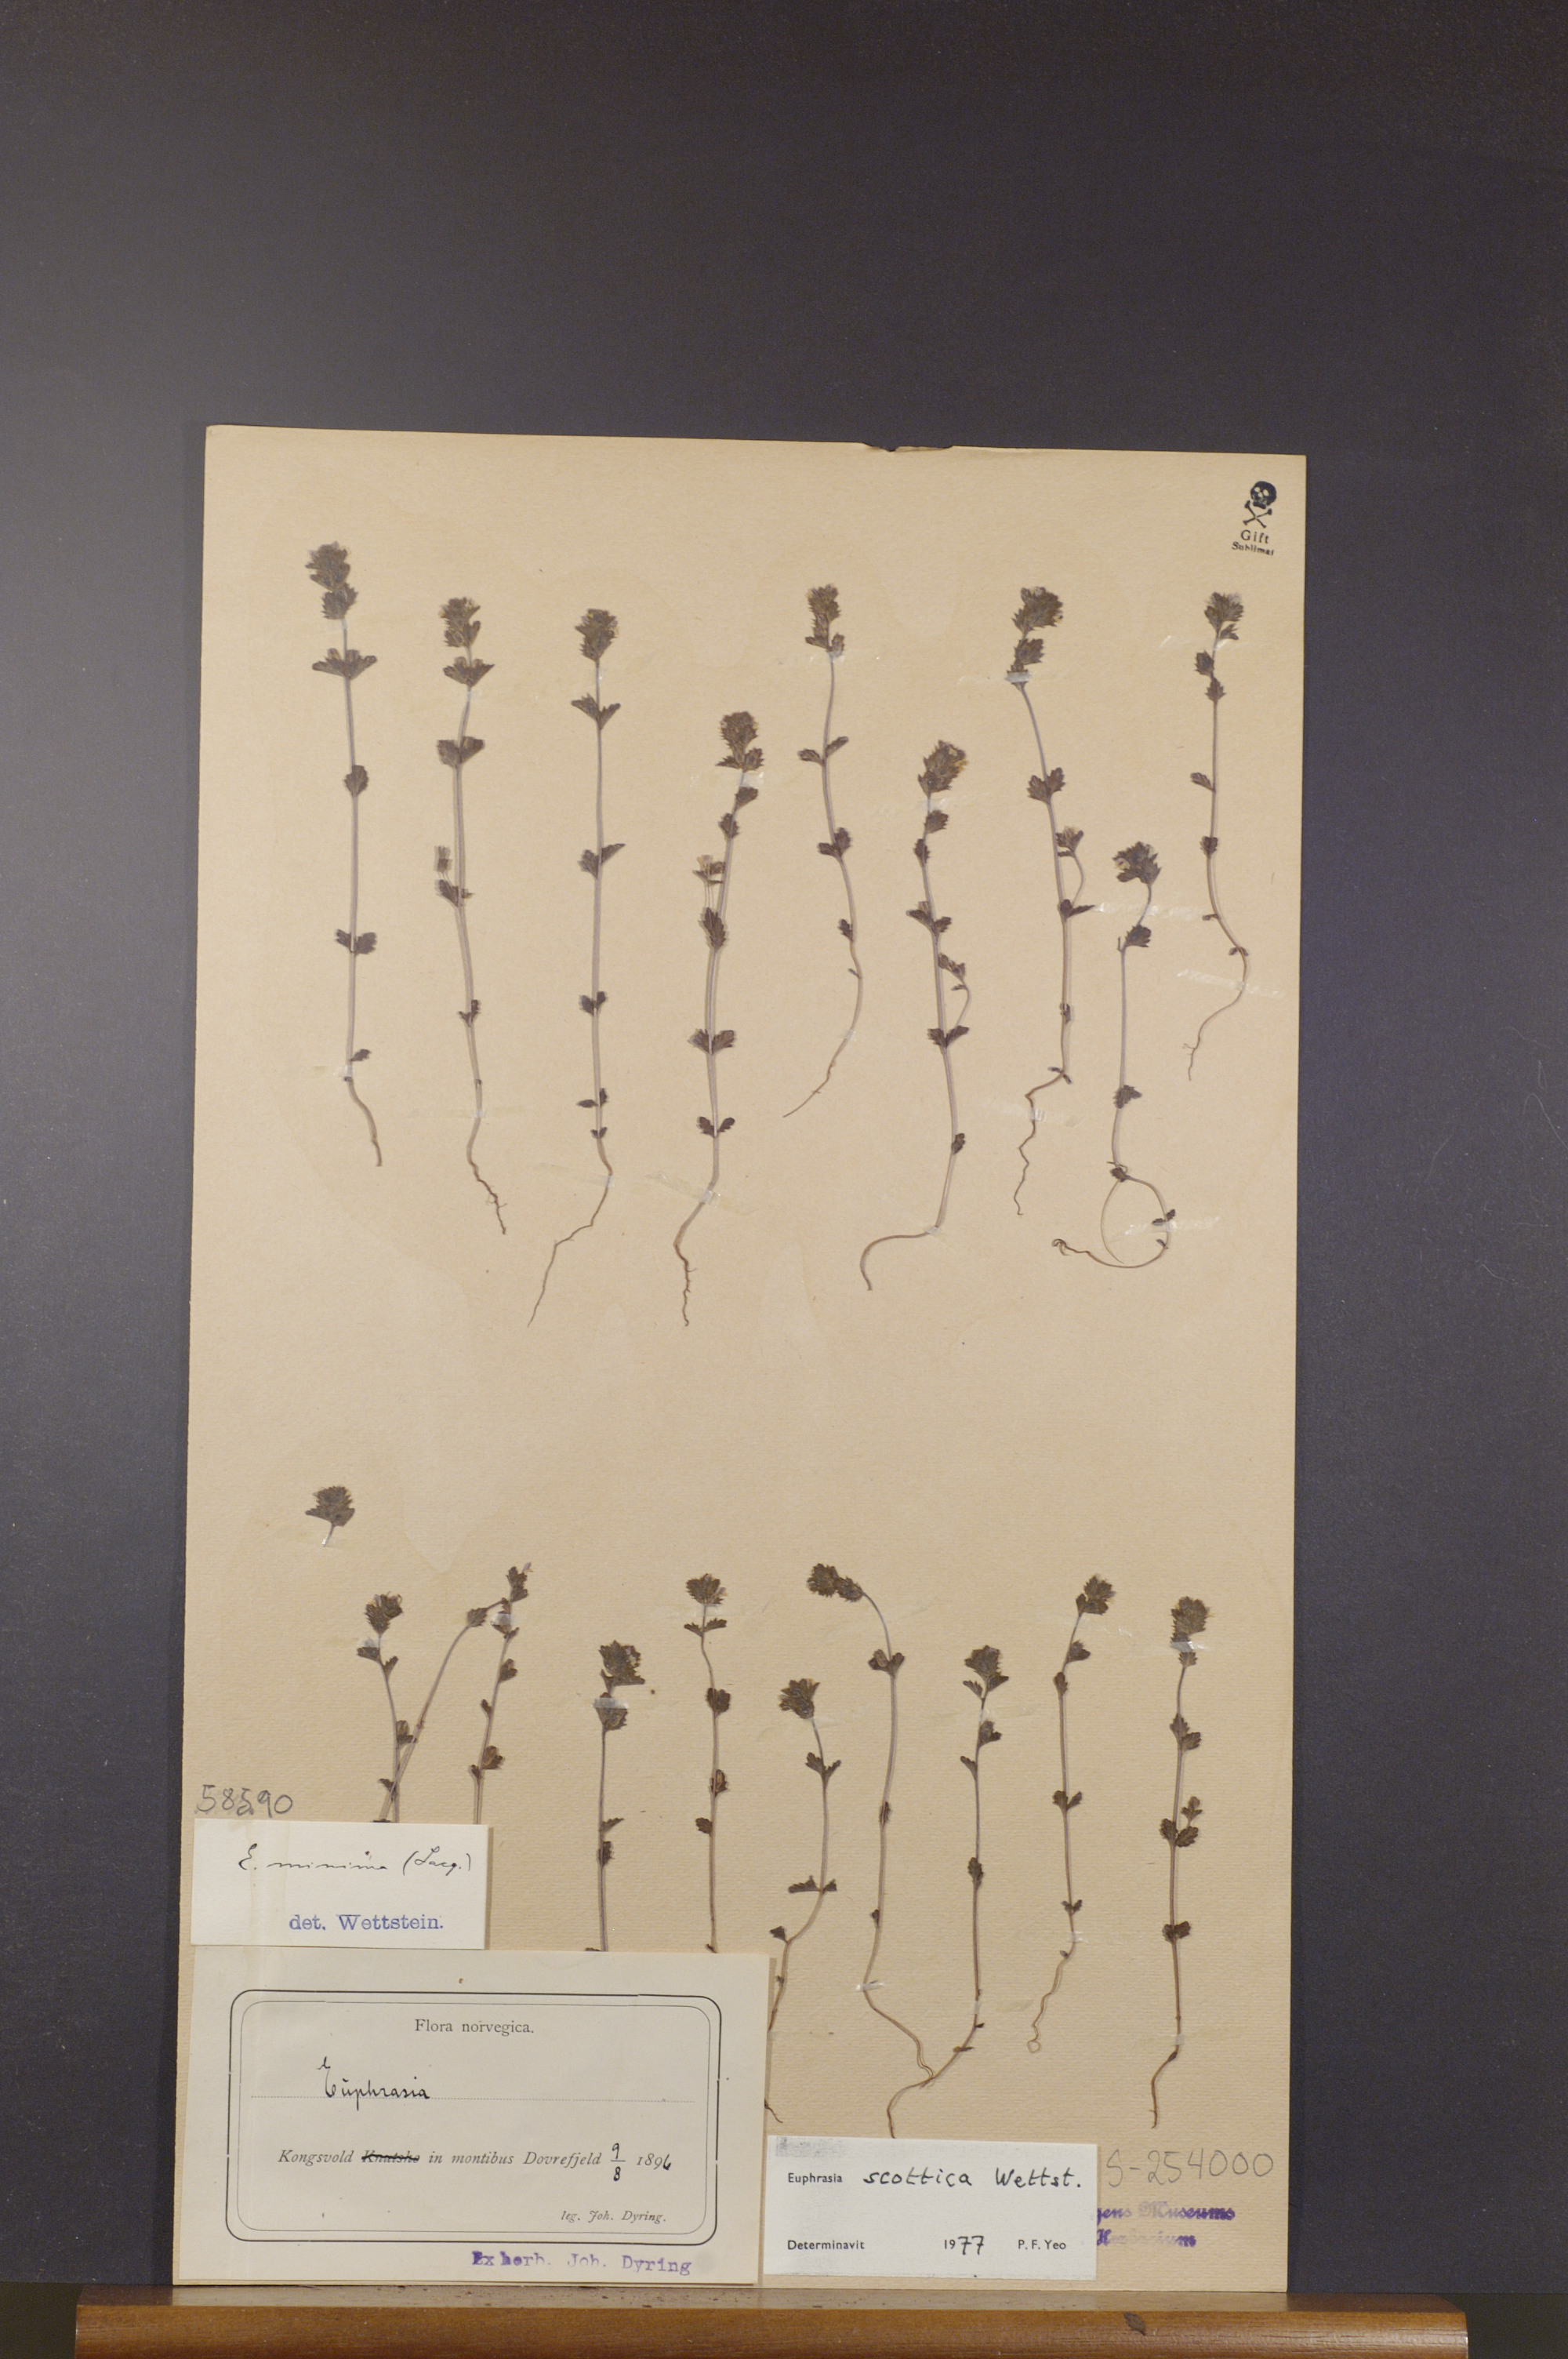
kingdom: Plantae
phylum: Tracheophyta
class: Magnoliopsida
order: Lamiales
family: Orobanchaceae
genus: Euphrasia
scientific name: Euphrasia scottica
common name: Slender scottish eyebright
